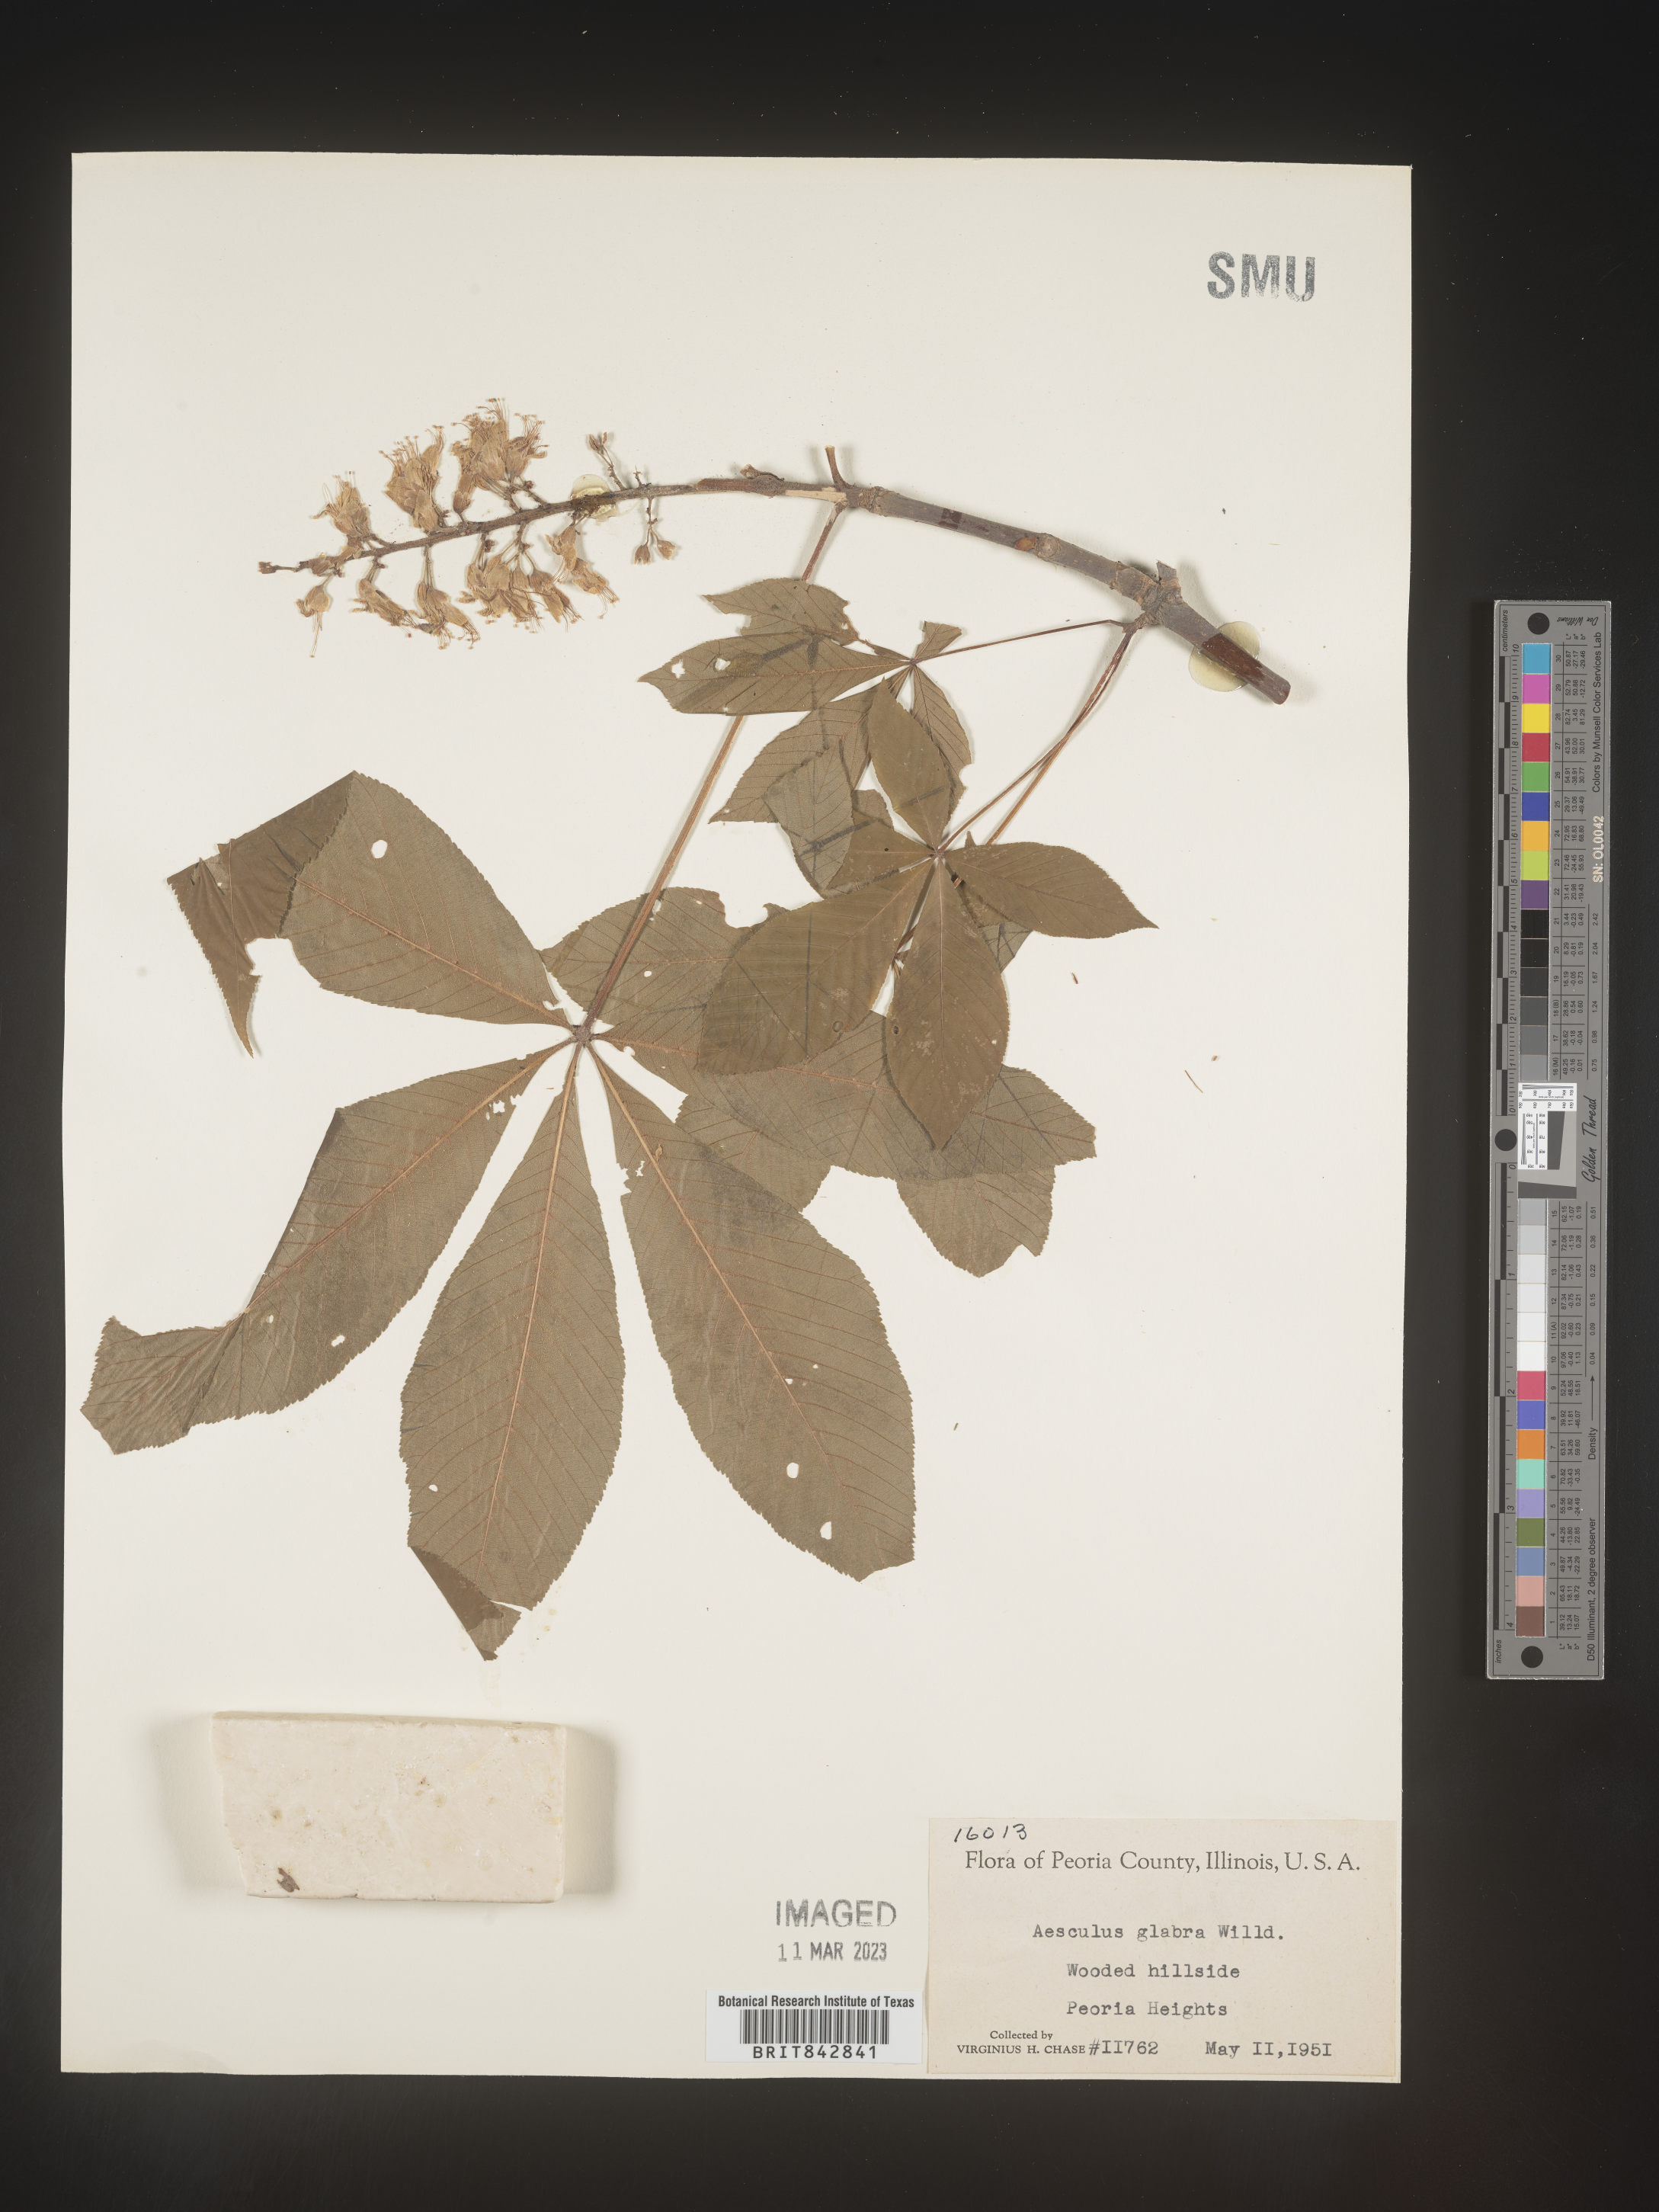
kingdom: Plantae
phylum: Tracheophyta
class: Magnoliopsida
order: Sapindales
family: Sapindaceae
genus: Aesculus
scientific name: Aesculus glabra
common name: Ohio buckeye
